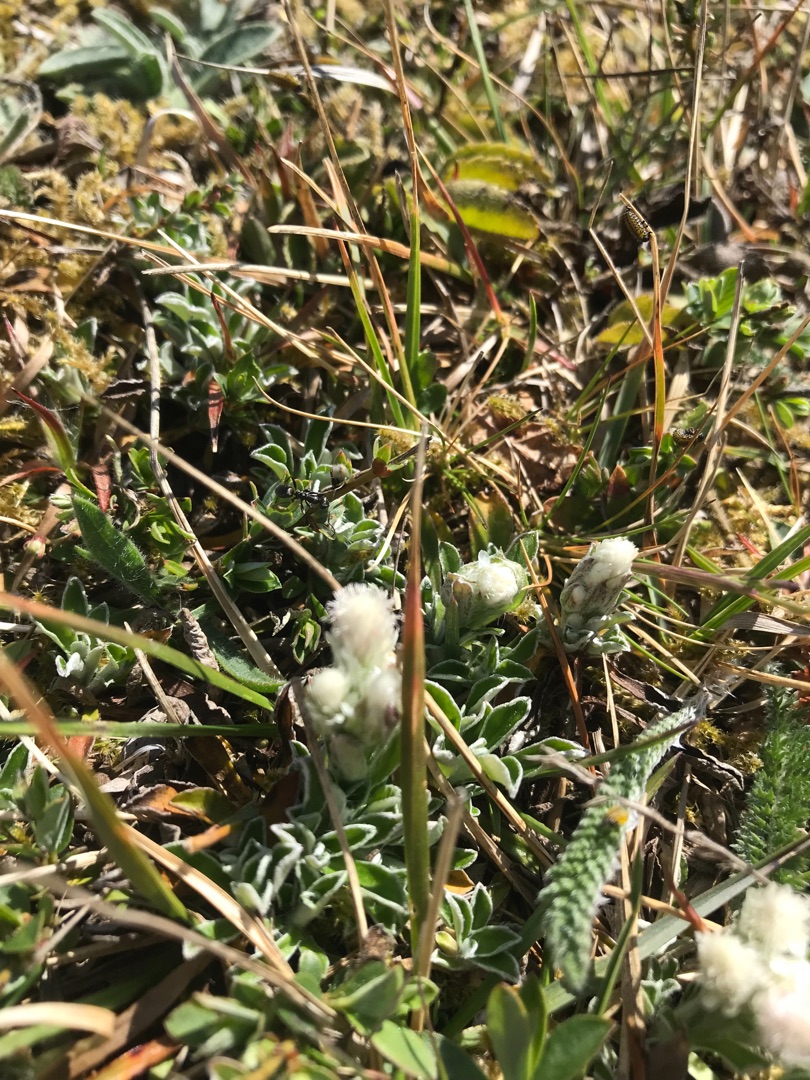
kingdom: Plantae
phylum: Tracheophyta
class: Magnoliopsida
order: Asterales
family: Asteraceae
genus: Antennaria
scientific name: Antennaria dioica
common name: Kattefod
